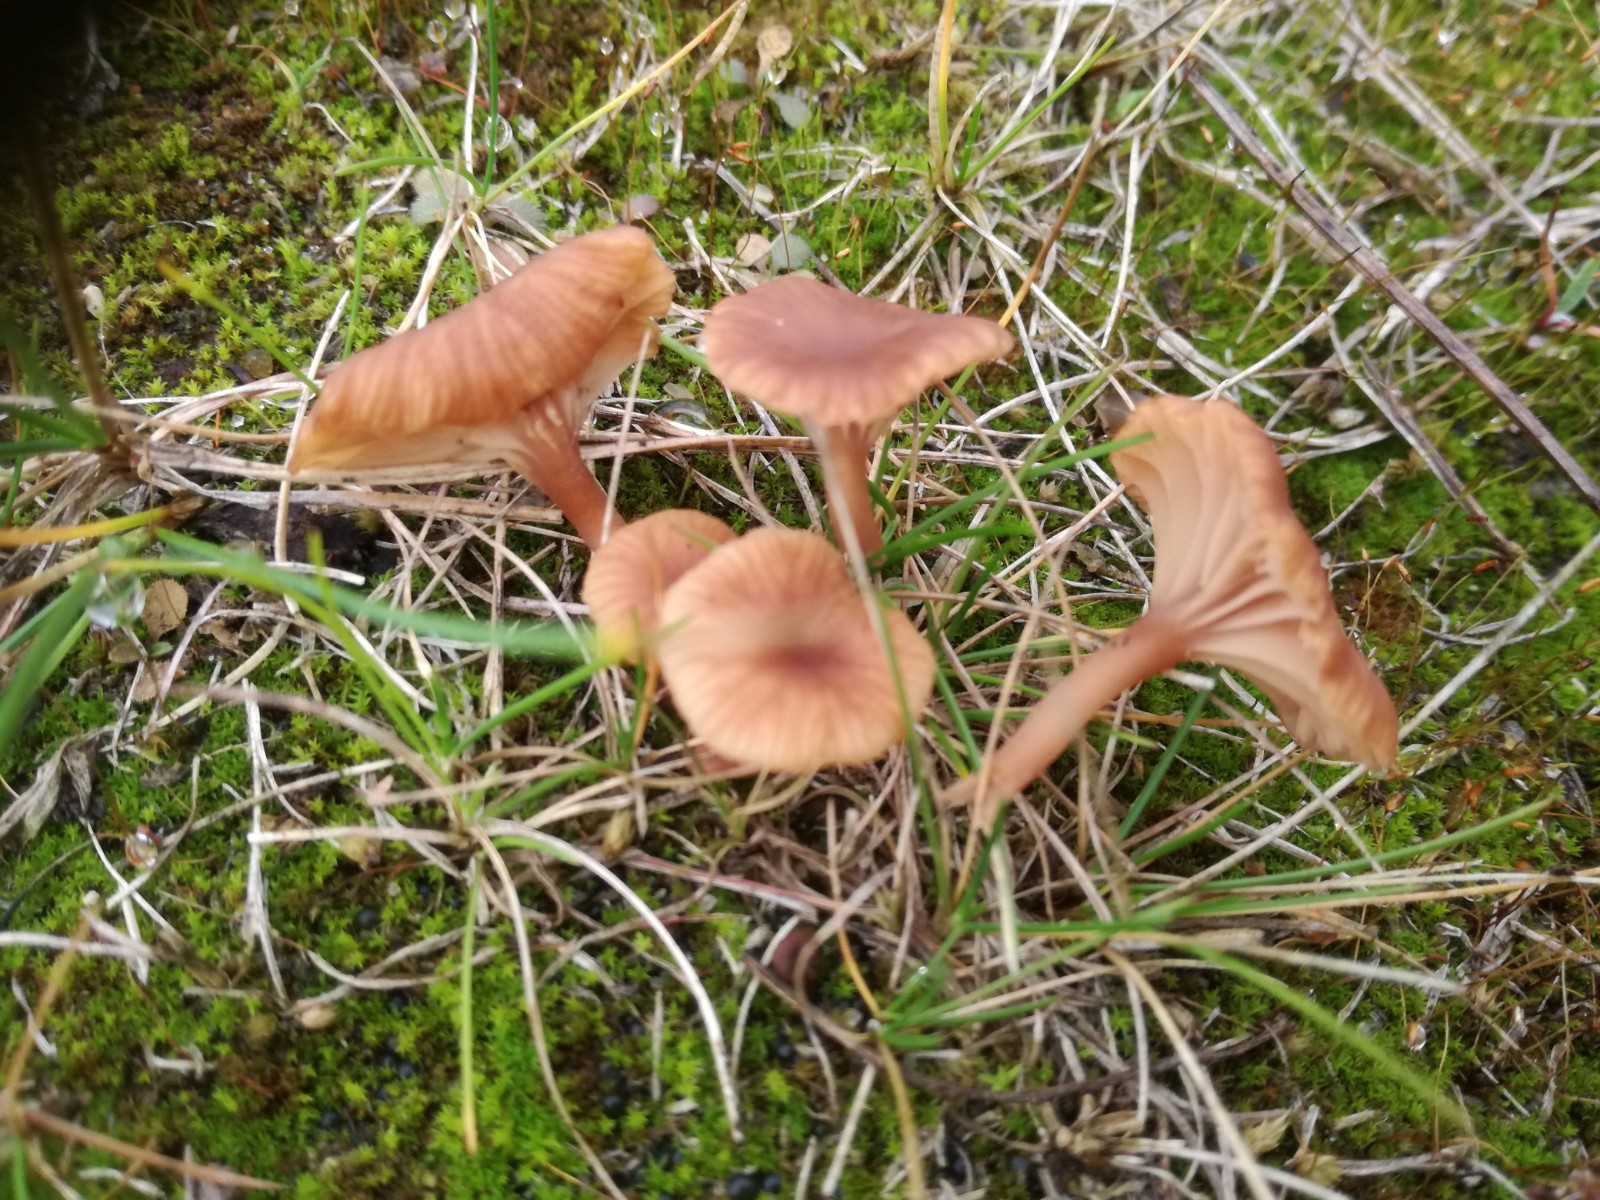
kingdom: Fungi
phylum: Basidiomycota
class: Agaricomycetes
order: Agaricales
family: Tricholomataceae
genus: Omphalina
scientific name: Omphalina pyxidata
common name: rødbrun navlehat
